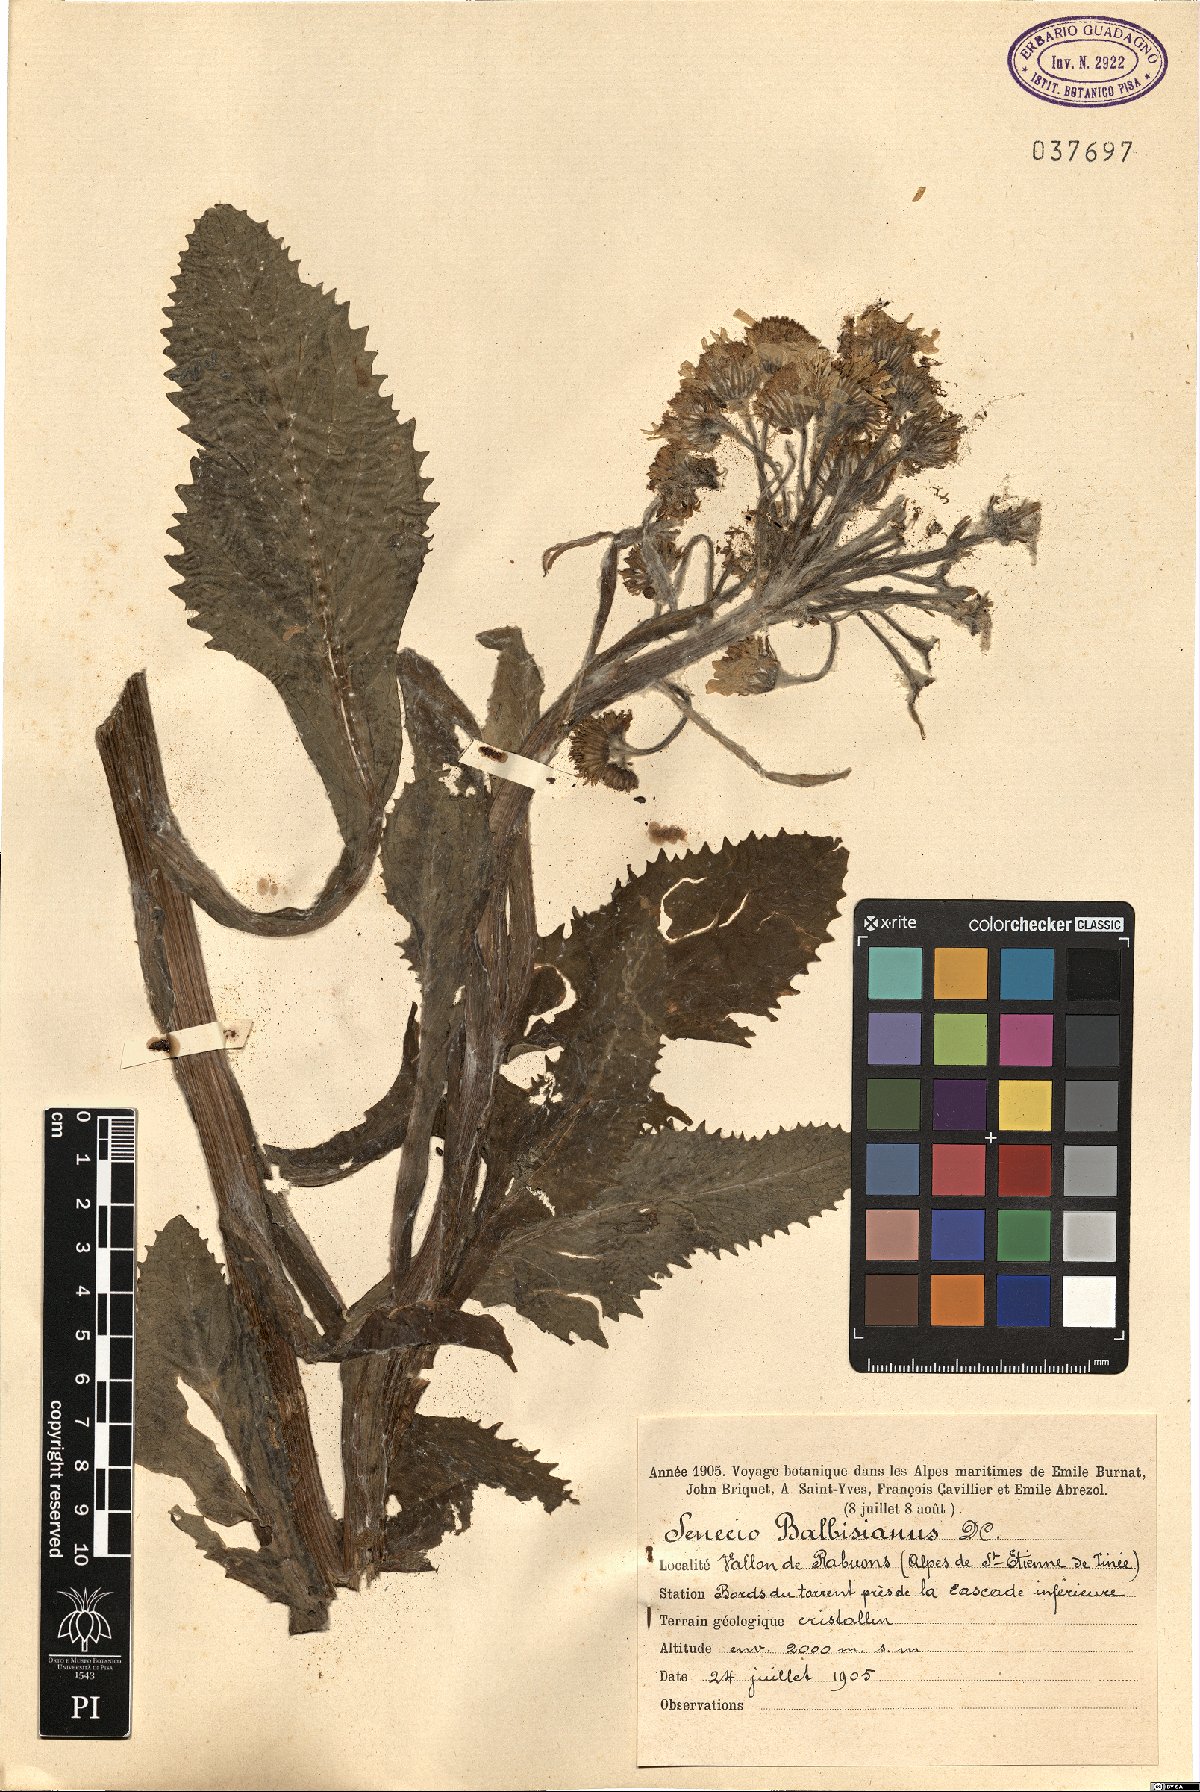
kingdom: Plantae
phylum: Tracheophyta
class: Magnoliopsida
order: Asterales
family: Asteraceae
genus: Tephroseris
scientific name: Tephroseris balbisiana
